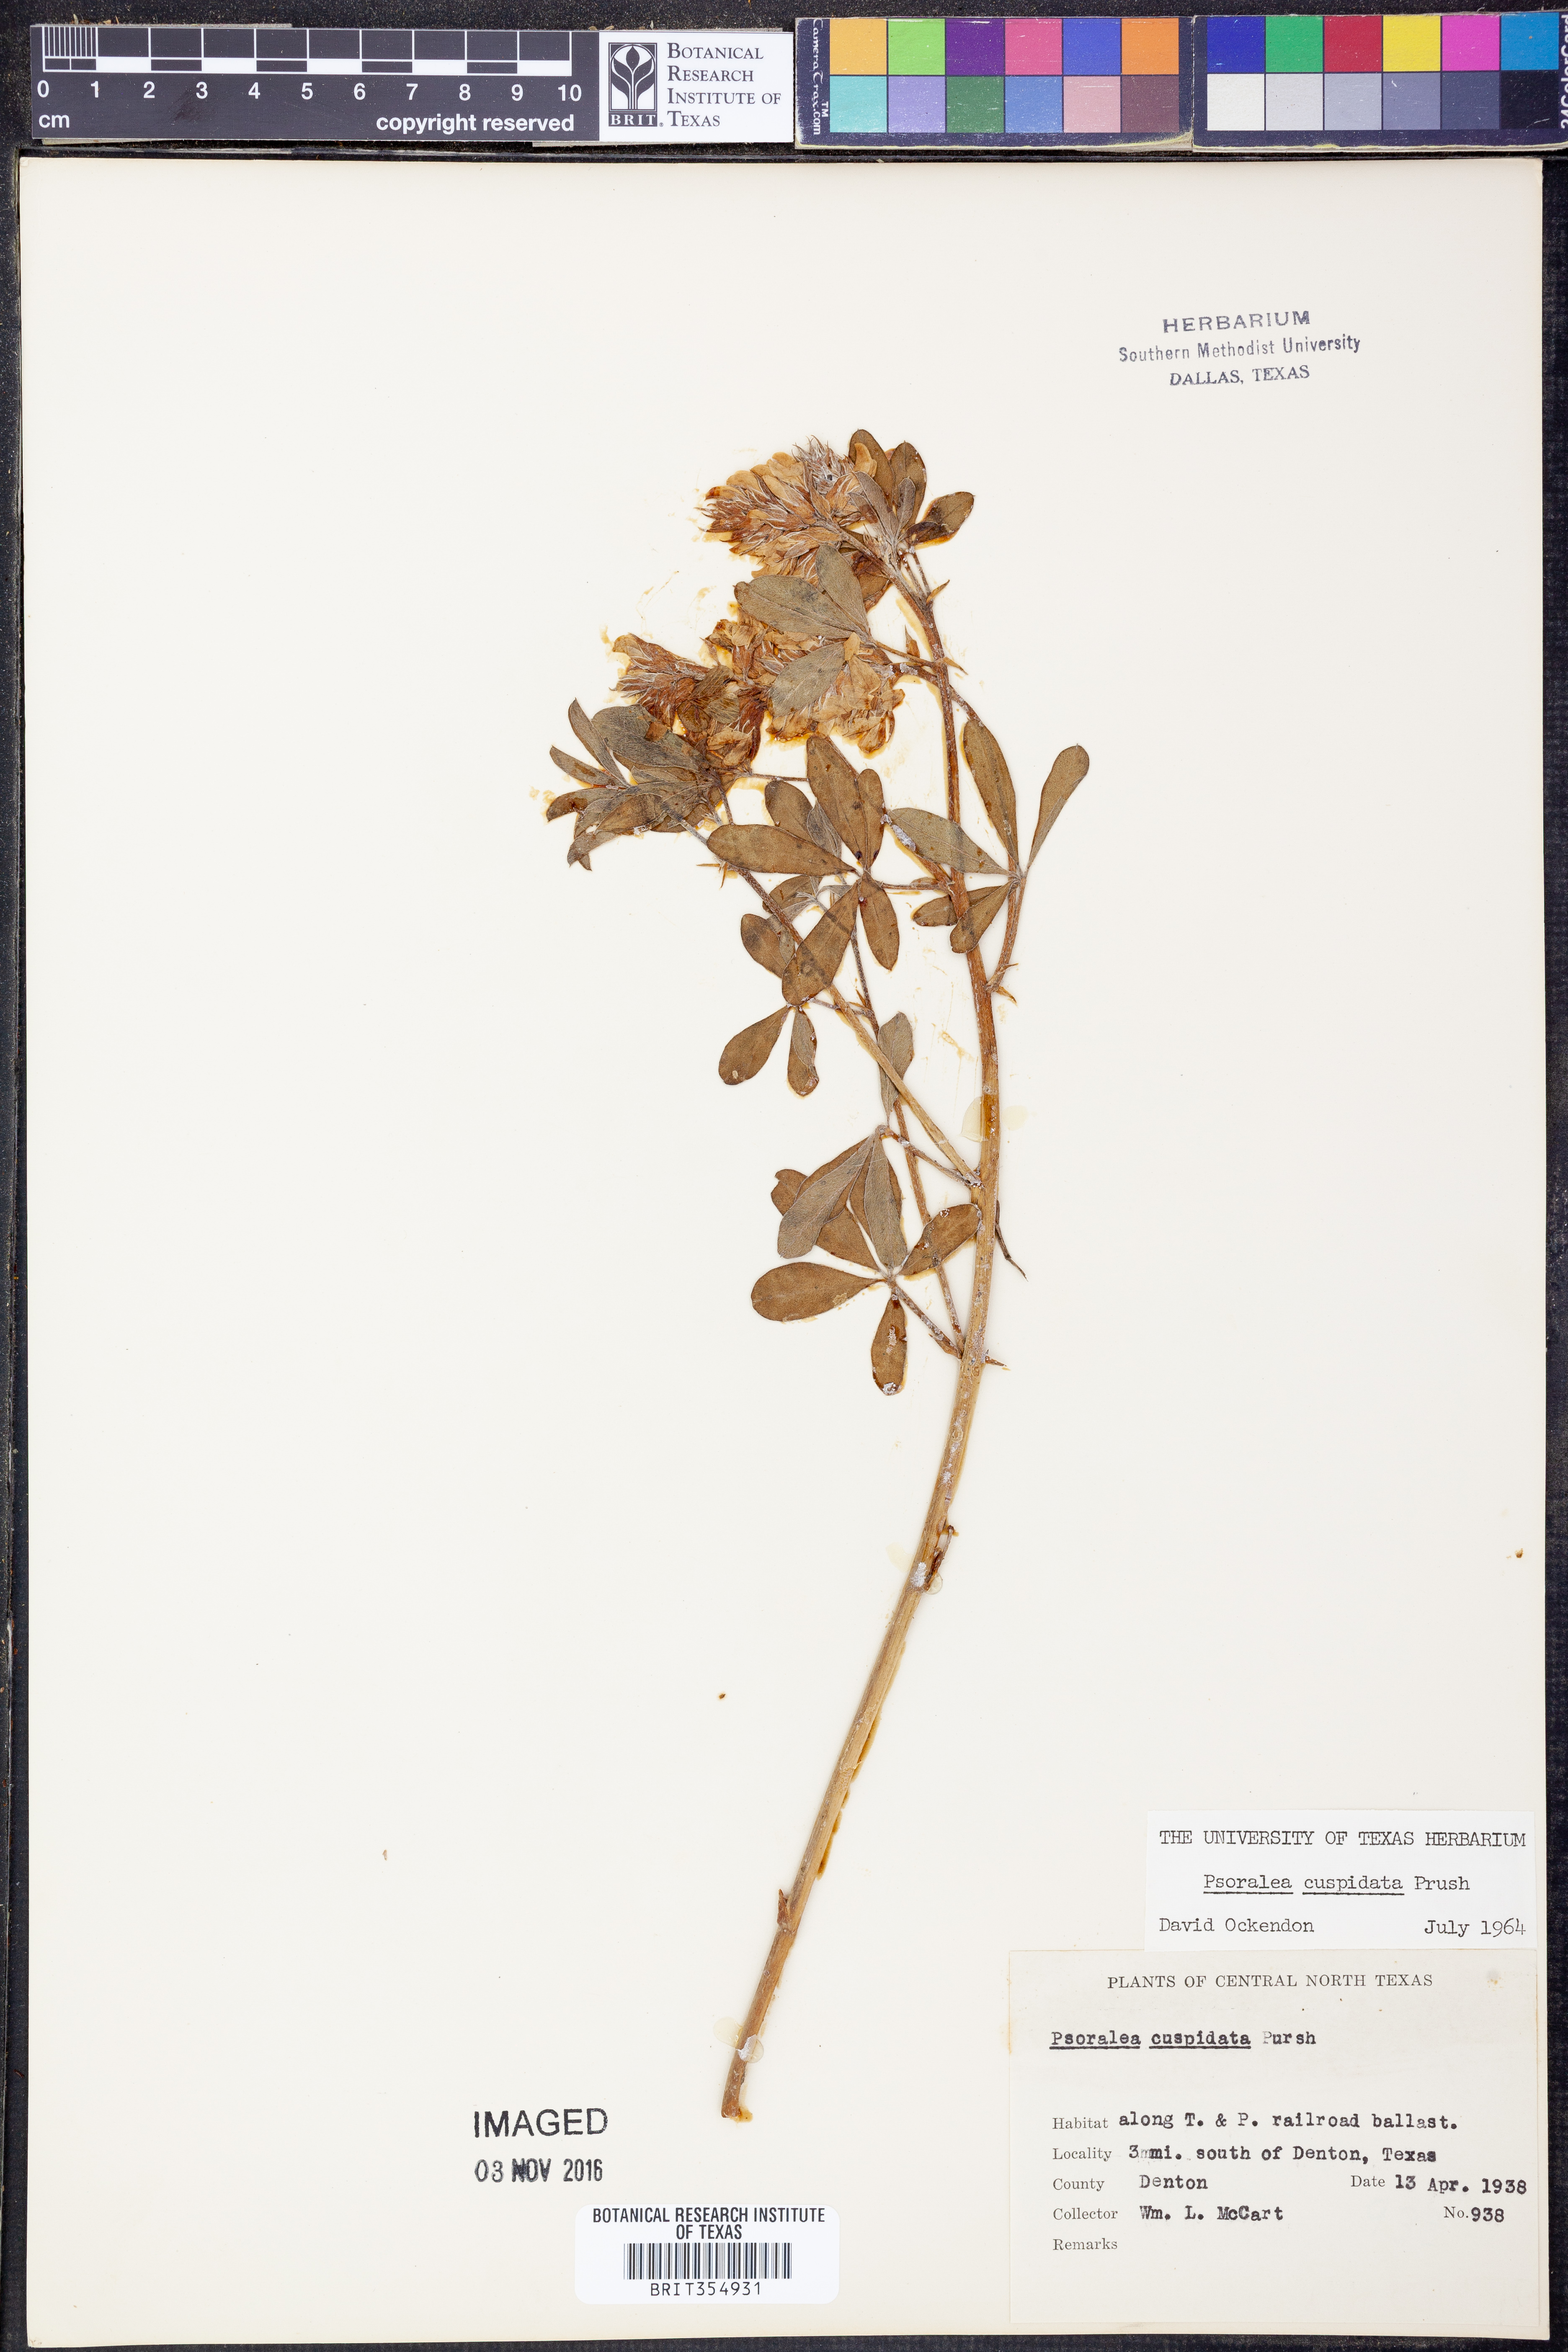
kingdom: Plantae
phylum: Tracheophyta
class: Magnoliopsida
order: Fabales
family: Fabaceae
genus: Pediomelum
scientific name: Pediomelum cuspidatum
